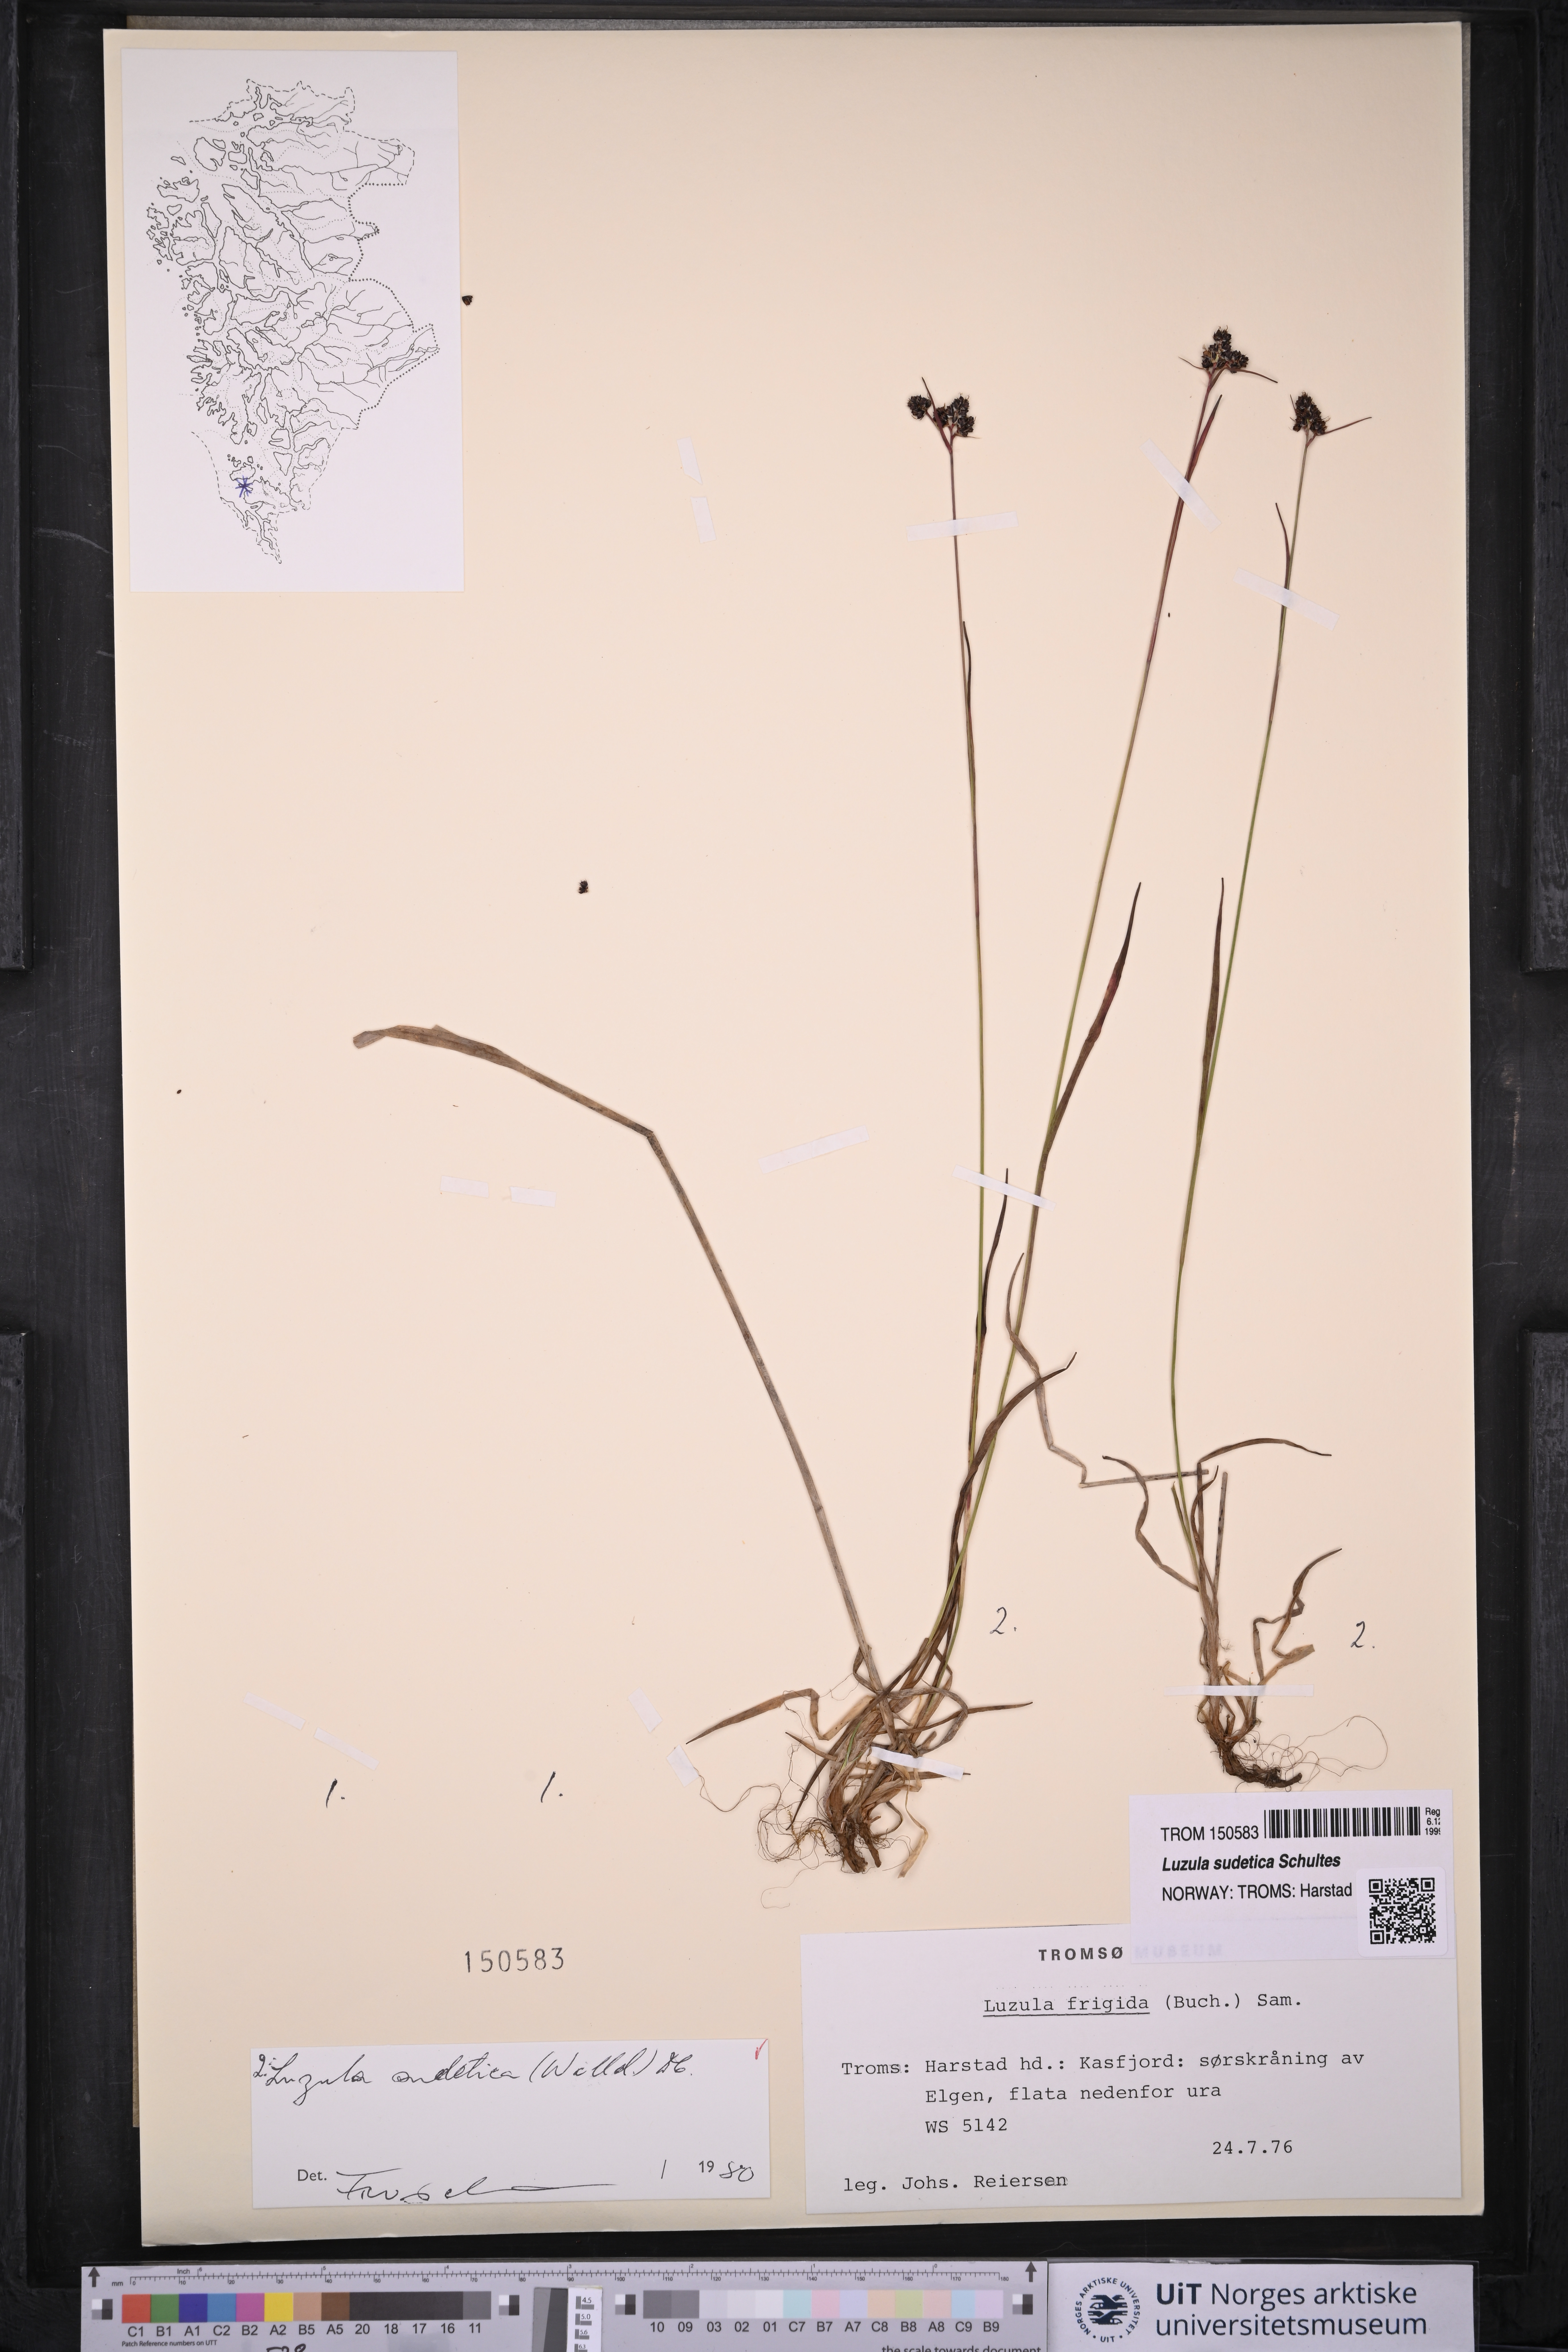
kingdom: Plantae
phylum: Tracheophyta
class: Liliopsida
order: Poales
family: Juncaceae
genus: Luzula
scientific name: Luzula sudetica
